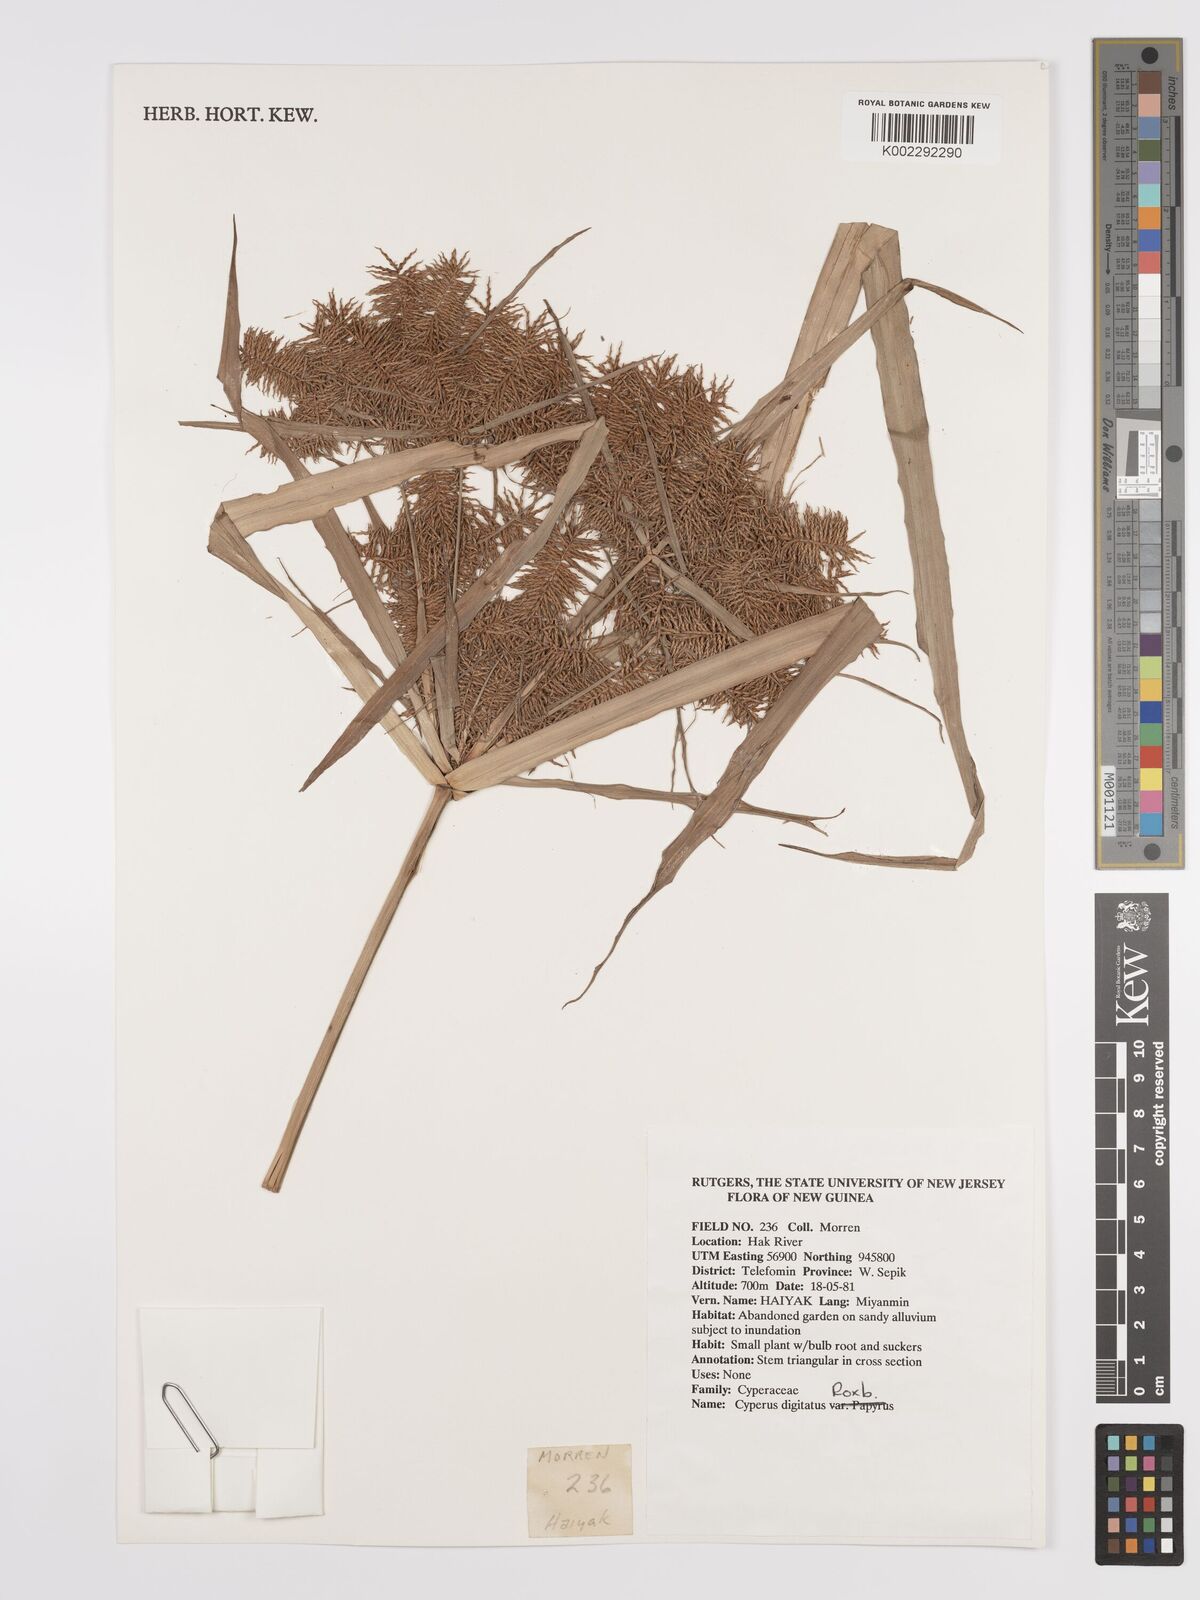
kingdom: Plantae
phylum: Tracheophyta
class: Liliopsida
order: Poales
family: Cyperaceae
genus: Cyperus
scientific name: Cyperus digitatus
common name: Finger flatsedge
